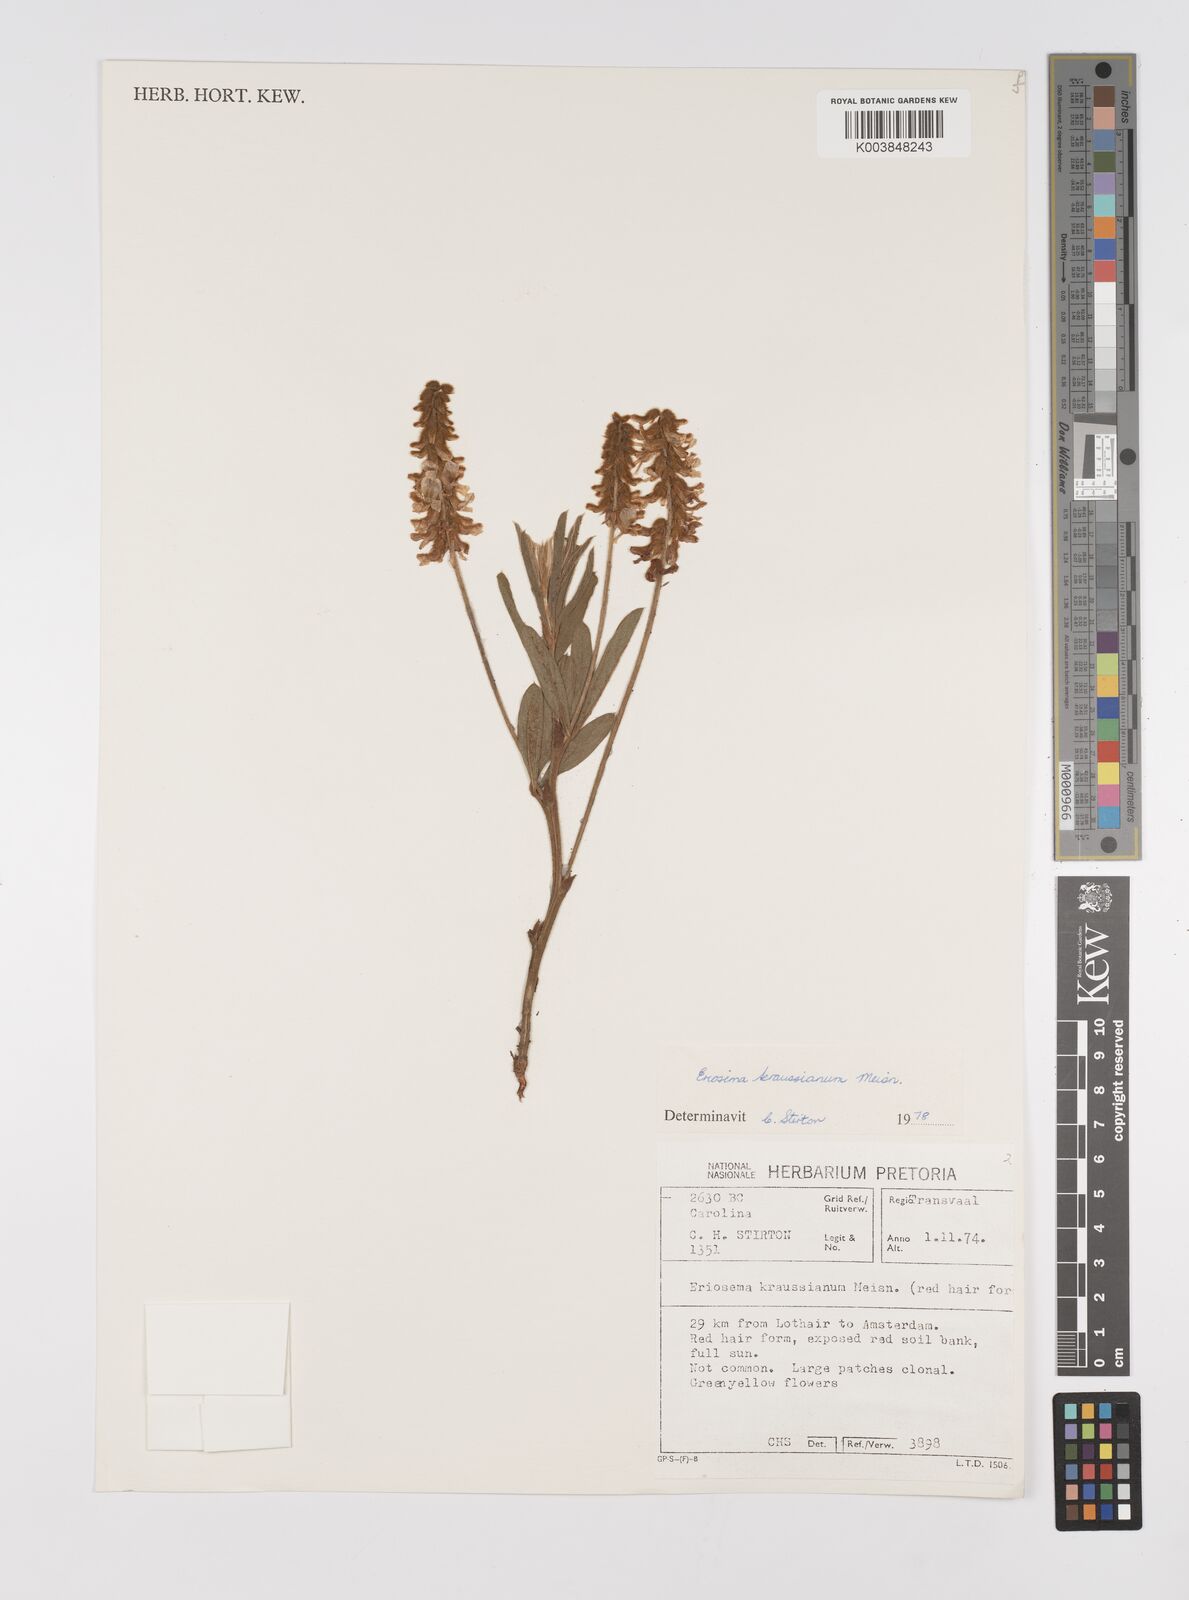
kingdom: Plantae
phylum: Tracheophyta
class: Magnoliopsida
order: Fabales
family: Fabaceae
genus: Eriosema
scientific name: Eriosema kraussianum
